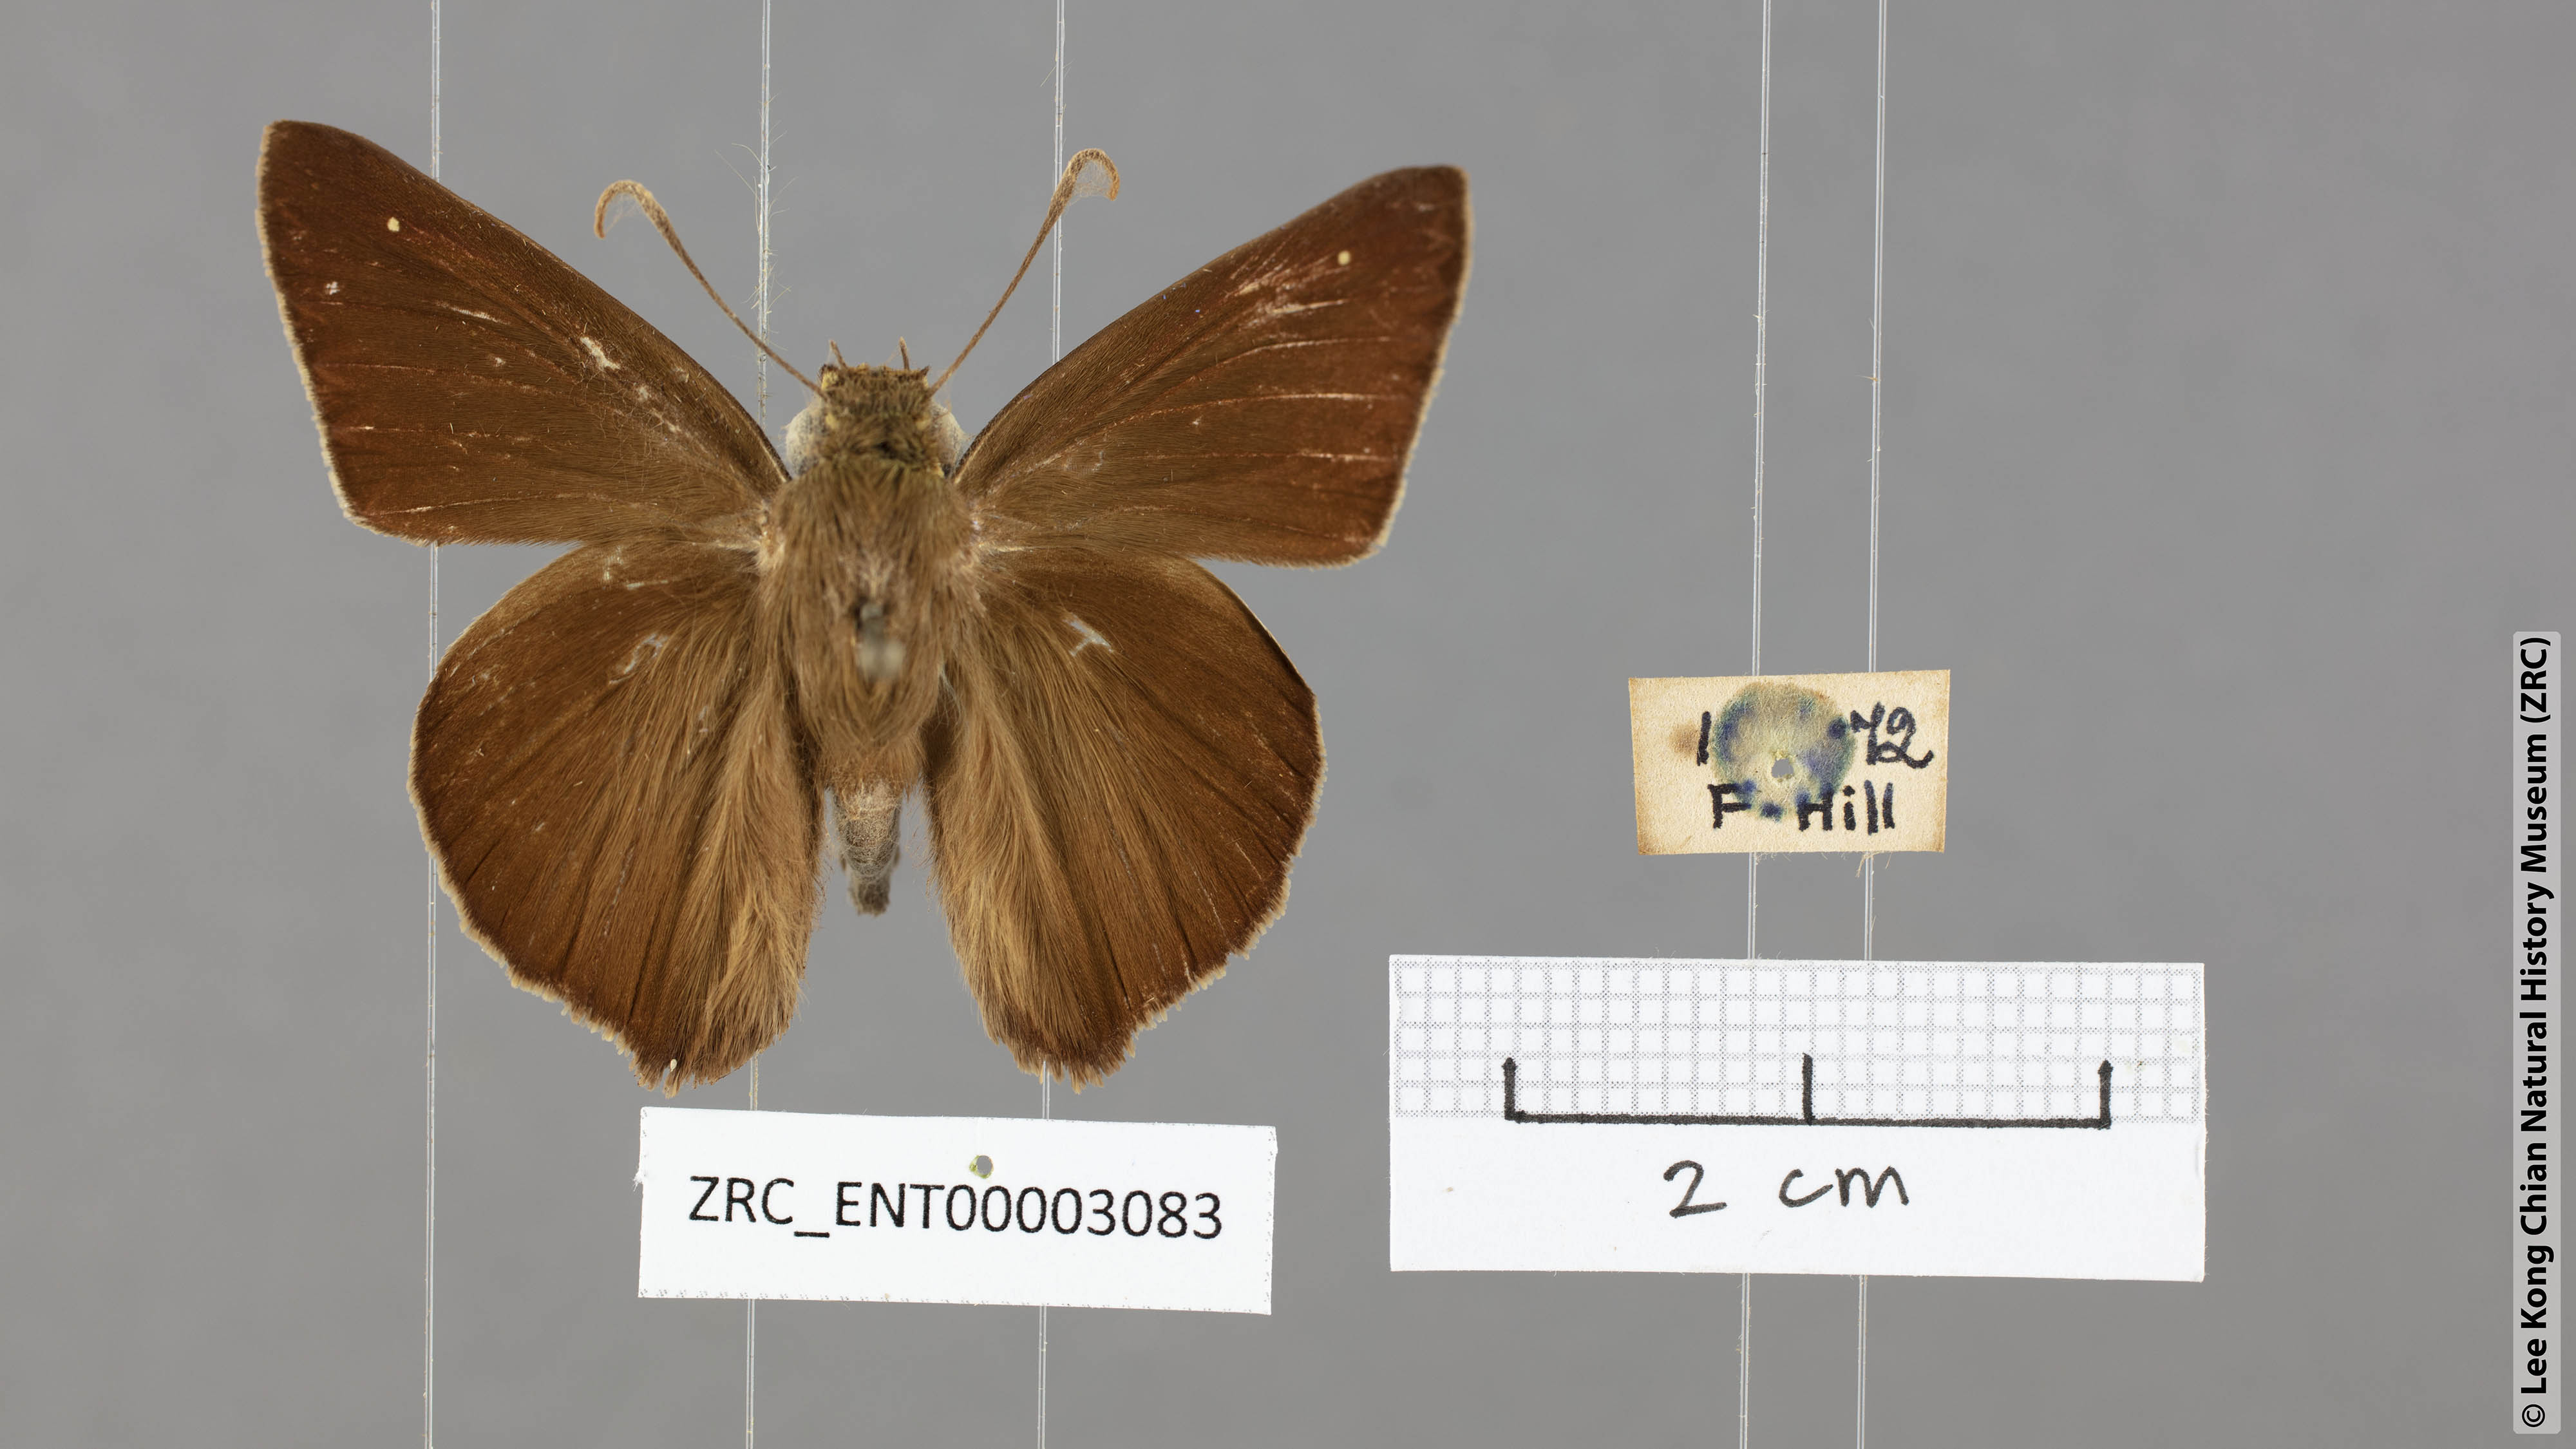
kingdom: Animalia
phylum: Arthropoda
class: Insecta
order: Lepidoptera
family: Hesperiidae
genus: Hasora
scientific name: Hasora vitta
